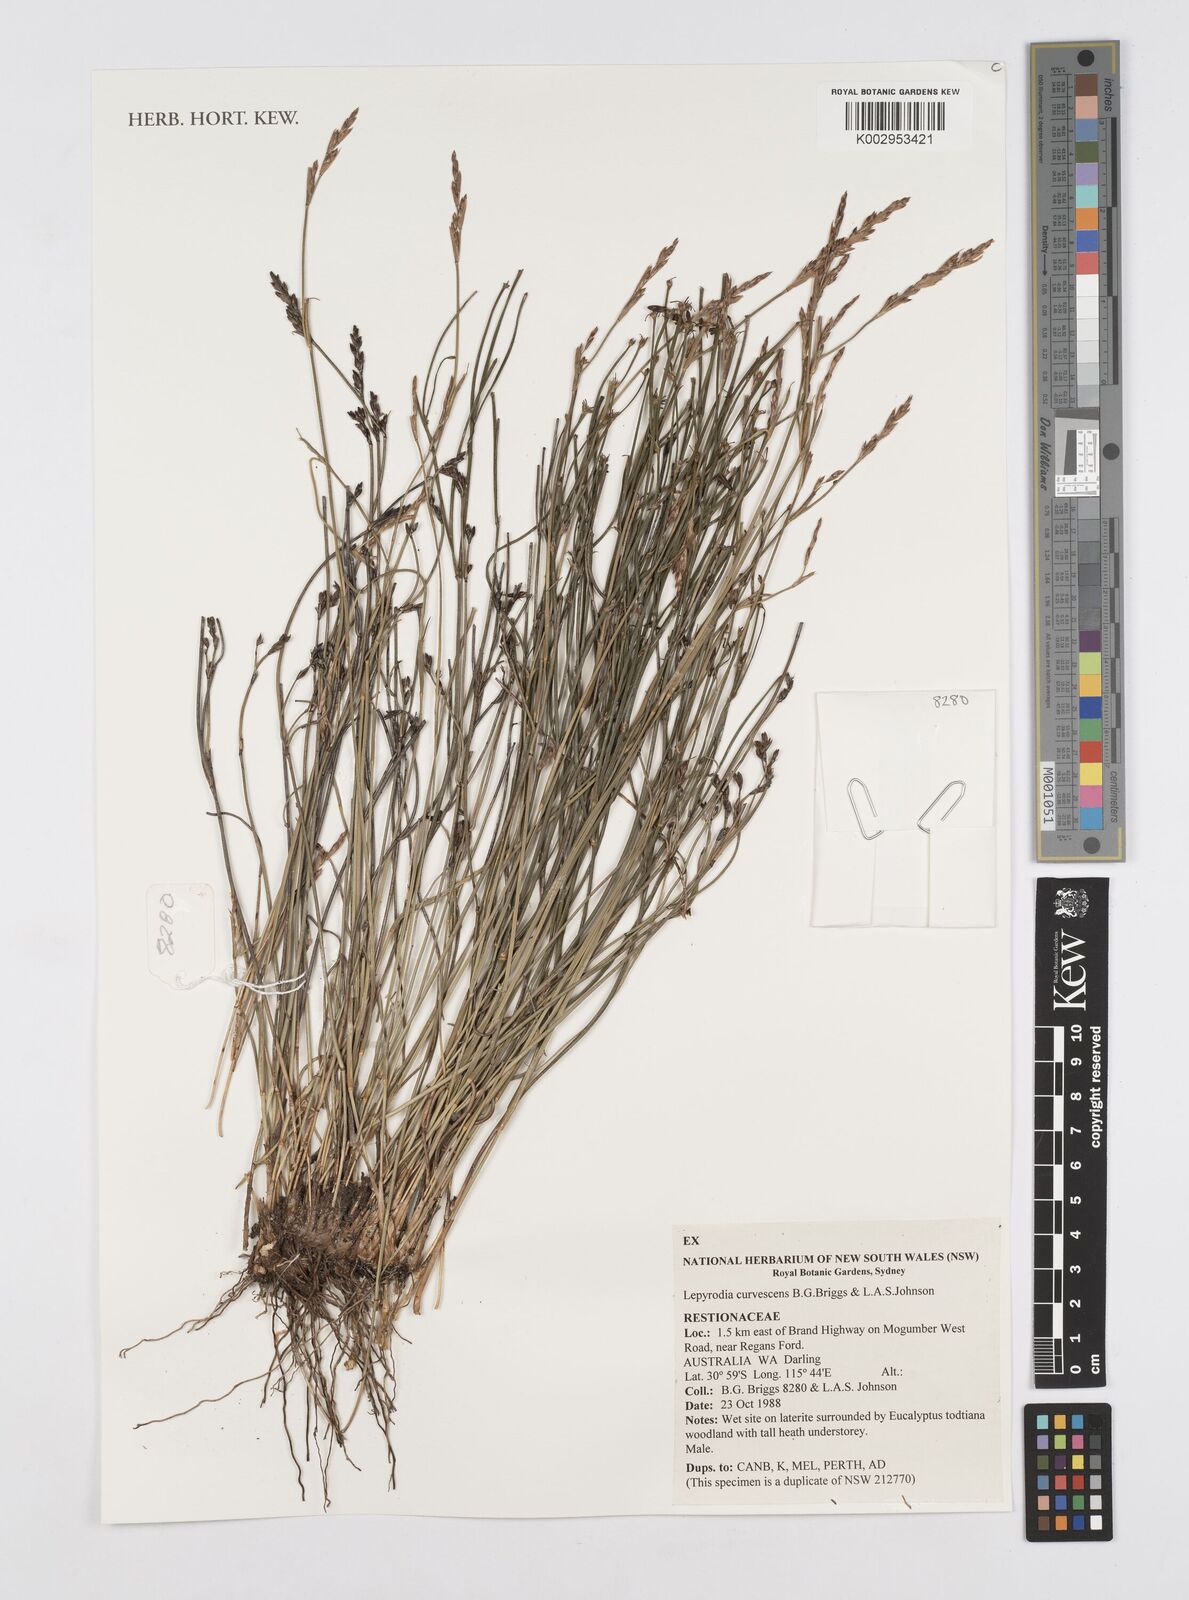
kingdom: Plantae
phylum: Tracheophyta
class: Liliopsida
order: Poales
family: Restionaceae
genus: Lepyrodia
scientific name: Lepyrodia curvescens
